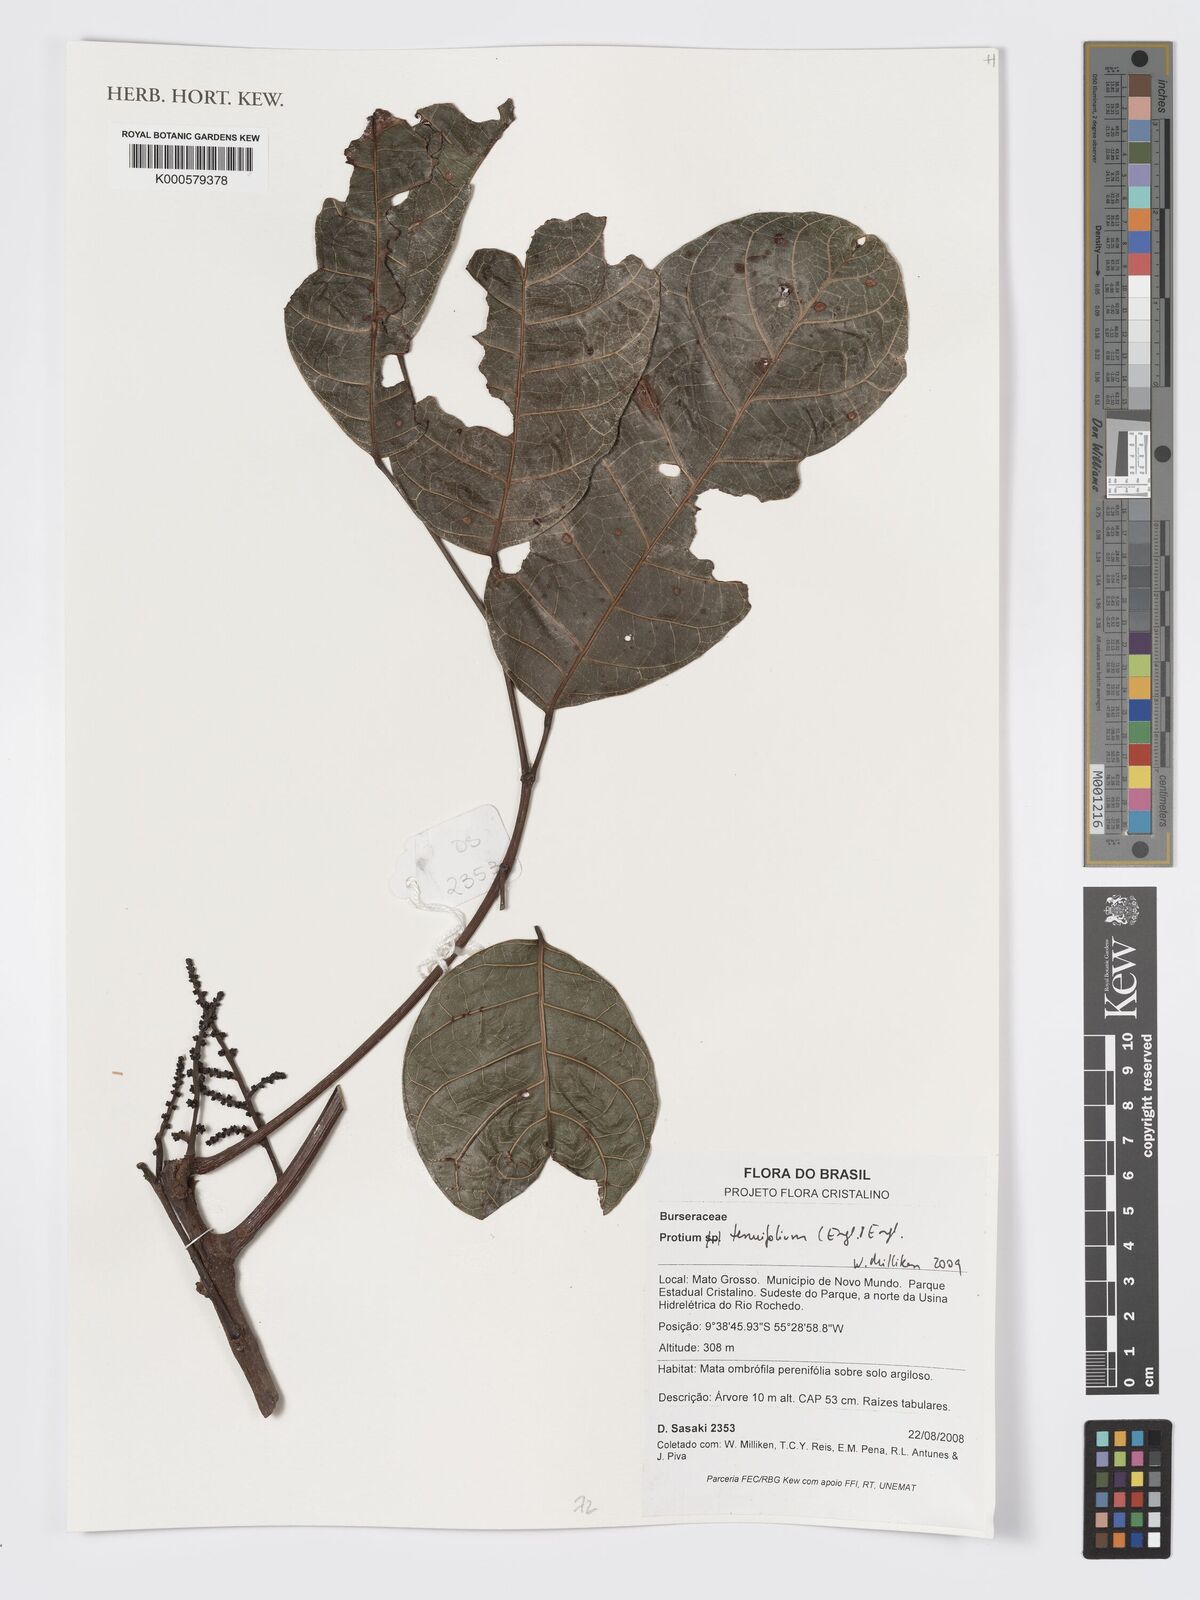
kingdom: Plantae
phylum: Tracheophyta
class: Magnoliopsida
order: Sapindales
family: Burseraceae
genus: Protium
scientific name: Protium tenuifolium
